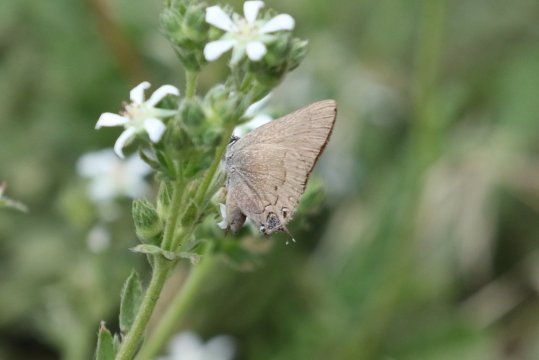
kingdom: Animalia
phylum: Arthropoda
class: Insecta
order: Lepidoptera
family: Lycaenidae
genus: Strymon
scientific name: Strymon saepium
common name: Hedgerow Hairstreak
